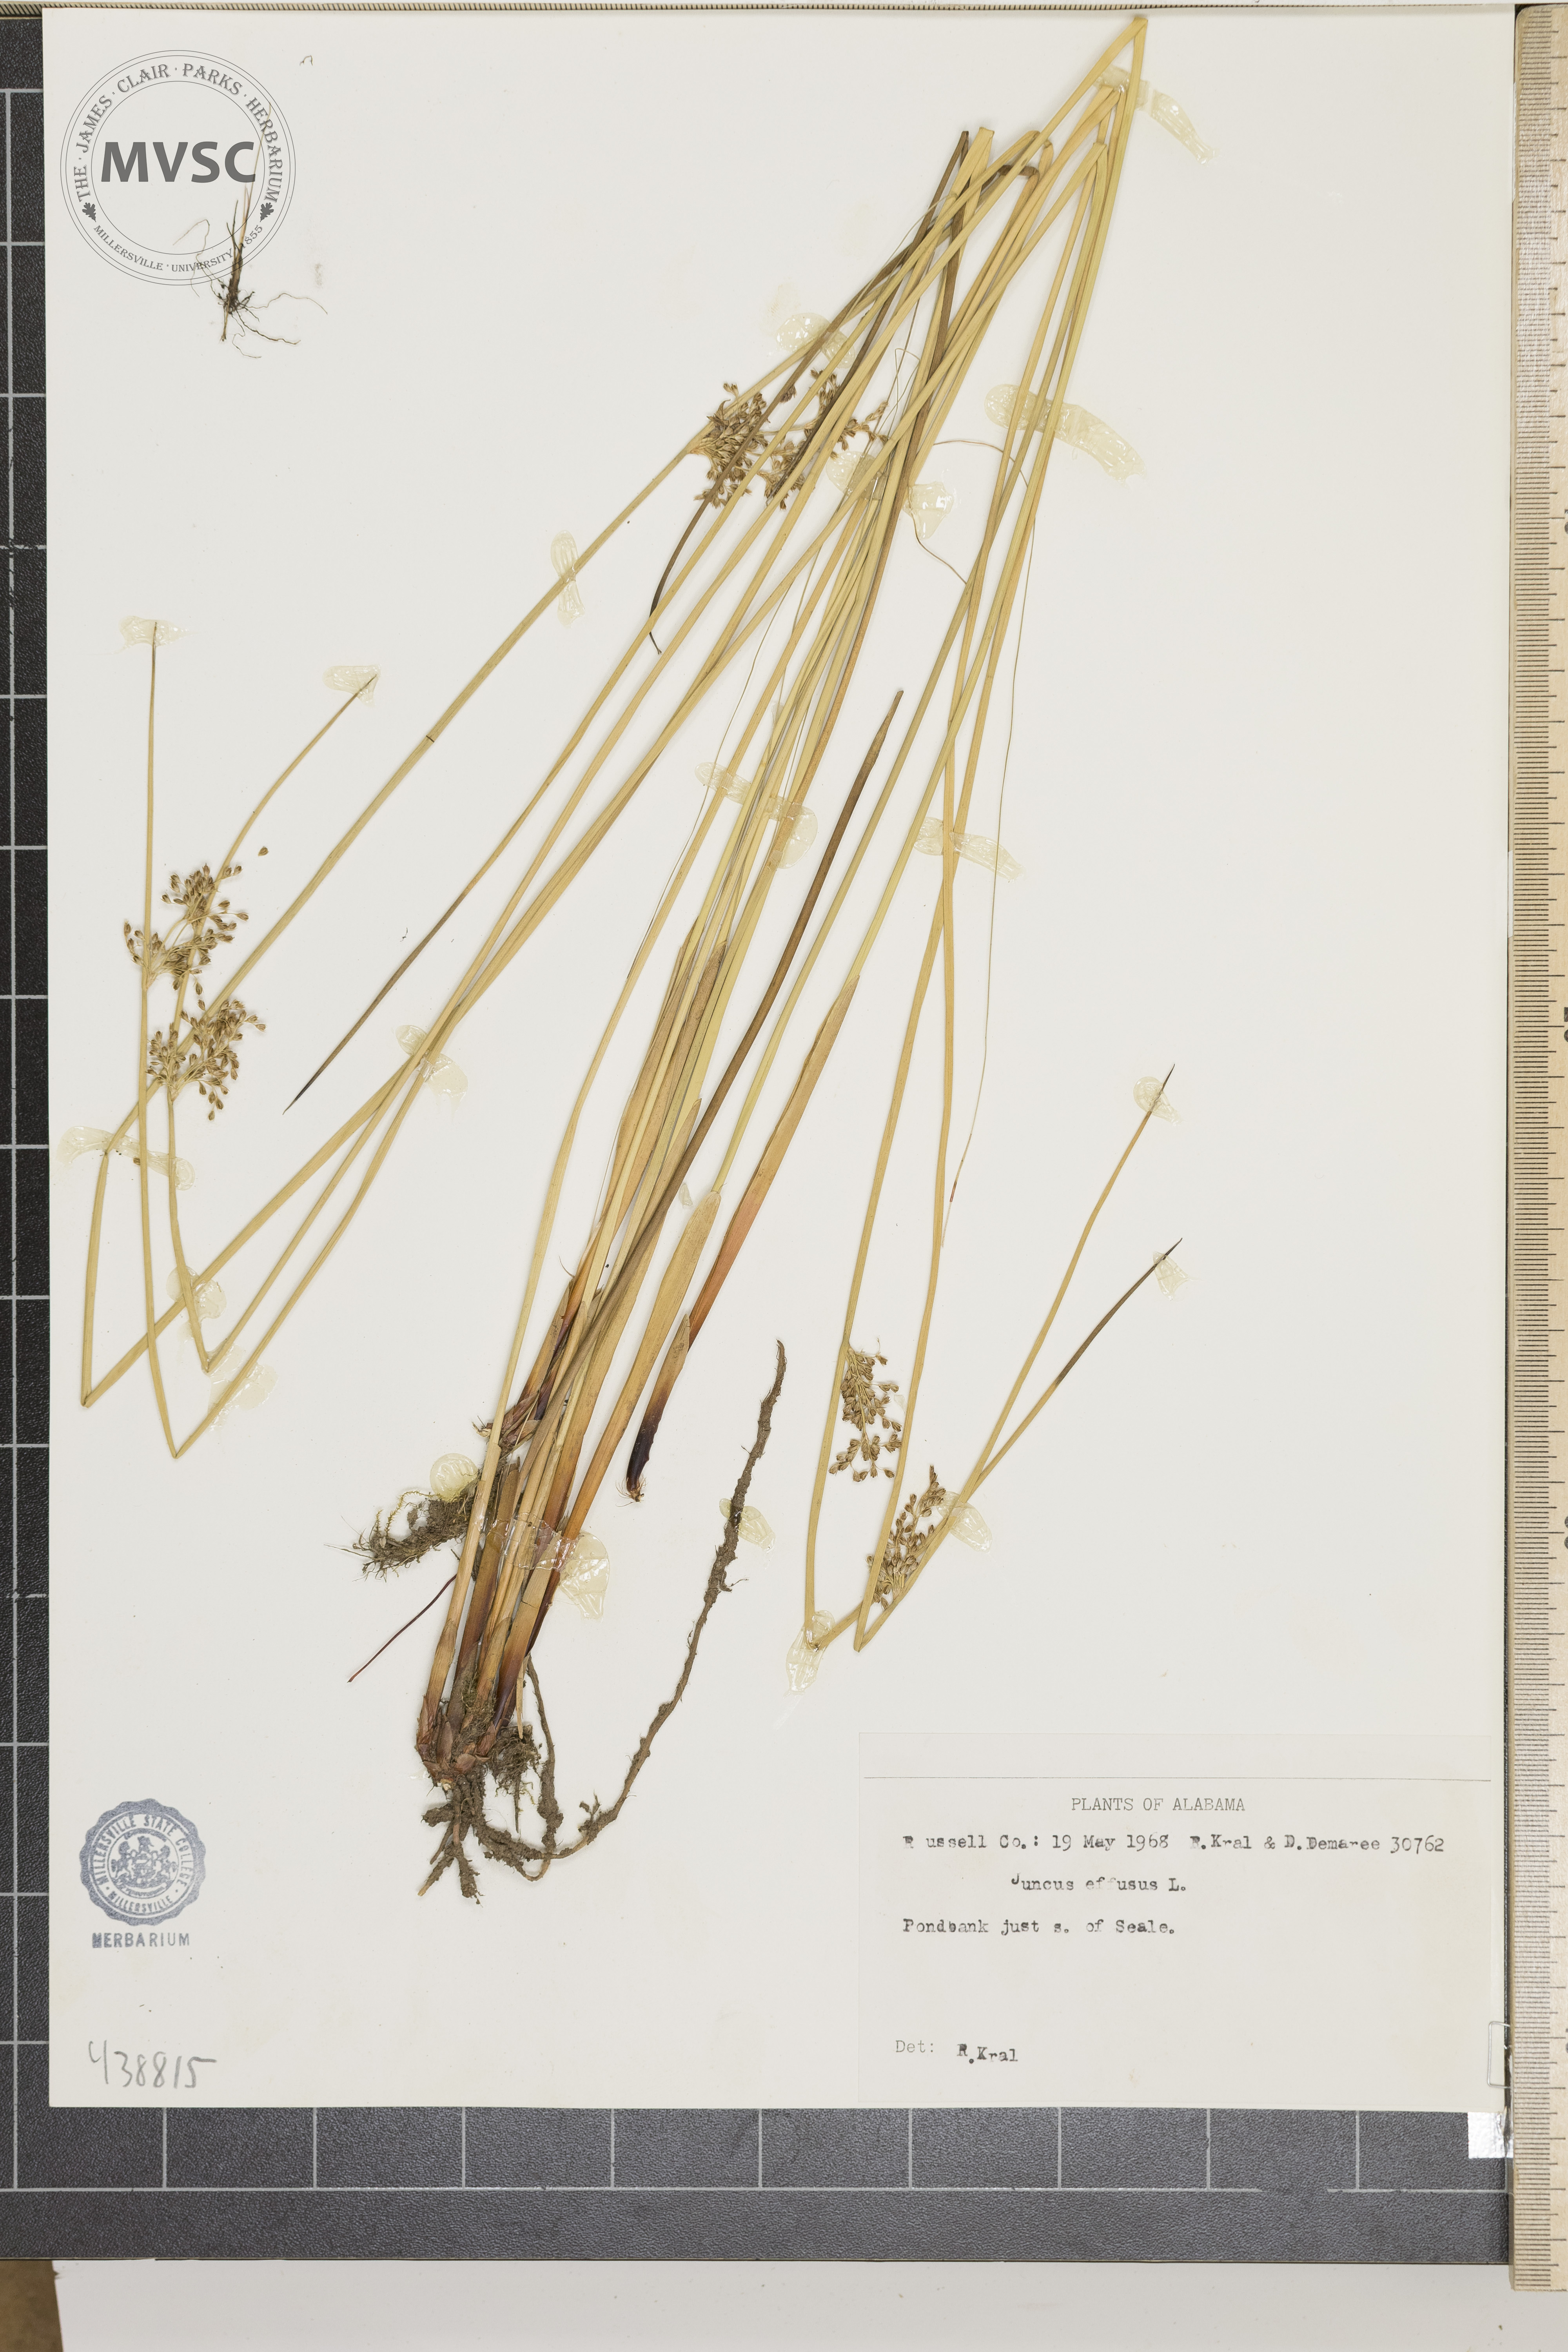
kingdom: Plantae
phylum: Tracheophyta
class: Liliopsida
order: Poales
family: Juncaceae
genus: Juncus
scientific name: Juncus effusus
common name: Soft rush
